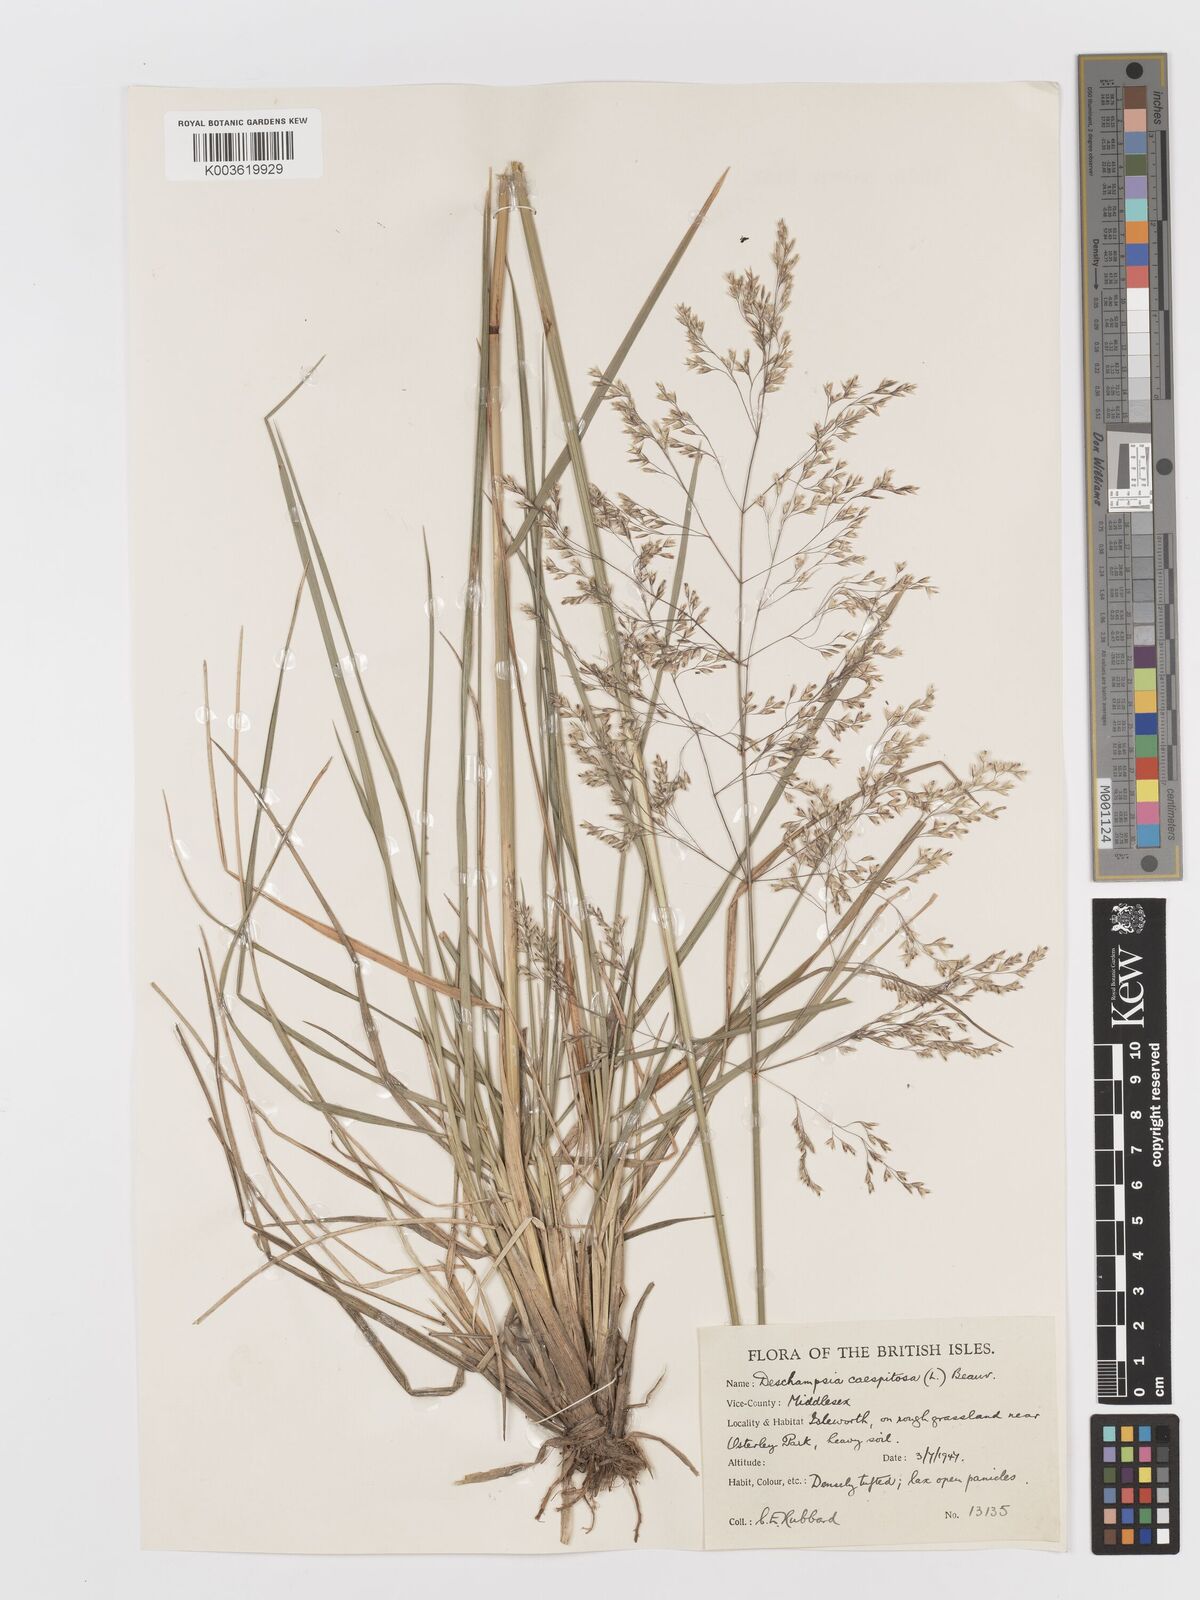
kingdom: Plantae
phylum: Tracheophyta
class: Liliopsida
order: Poales
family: Poaceae
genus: Deschampsia
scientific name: Deschampsia
